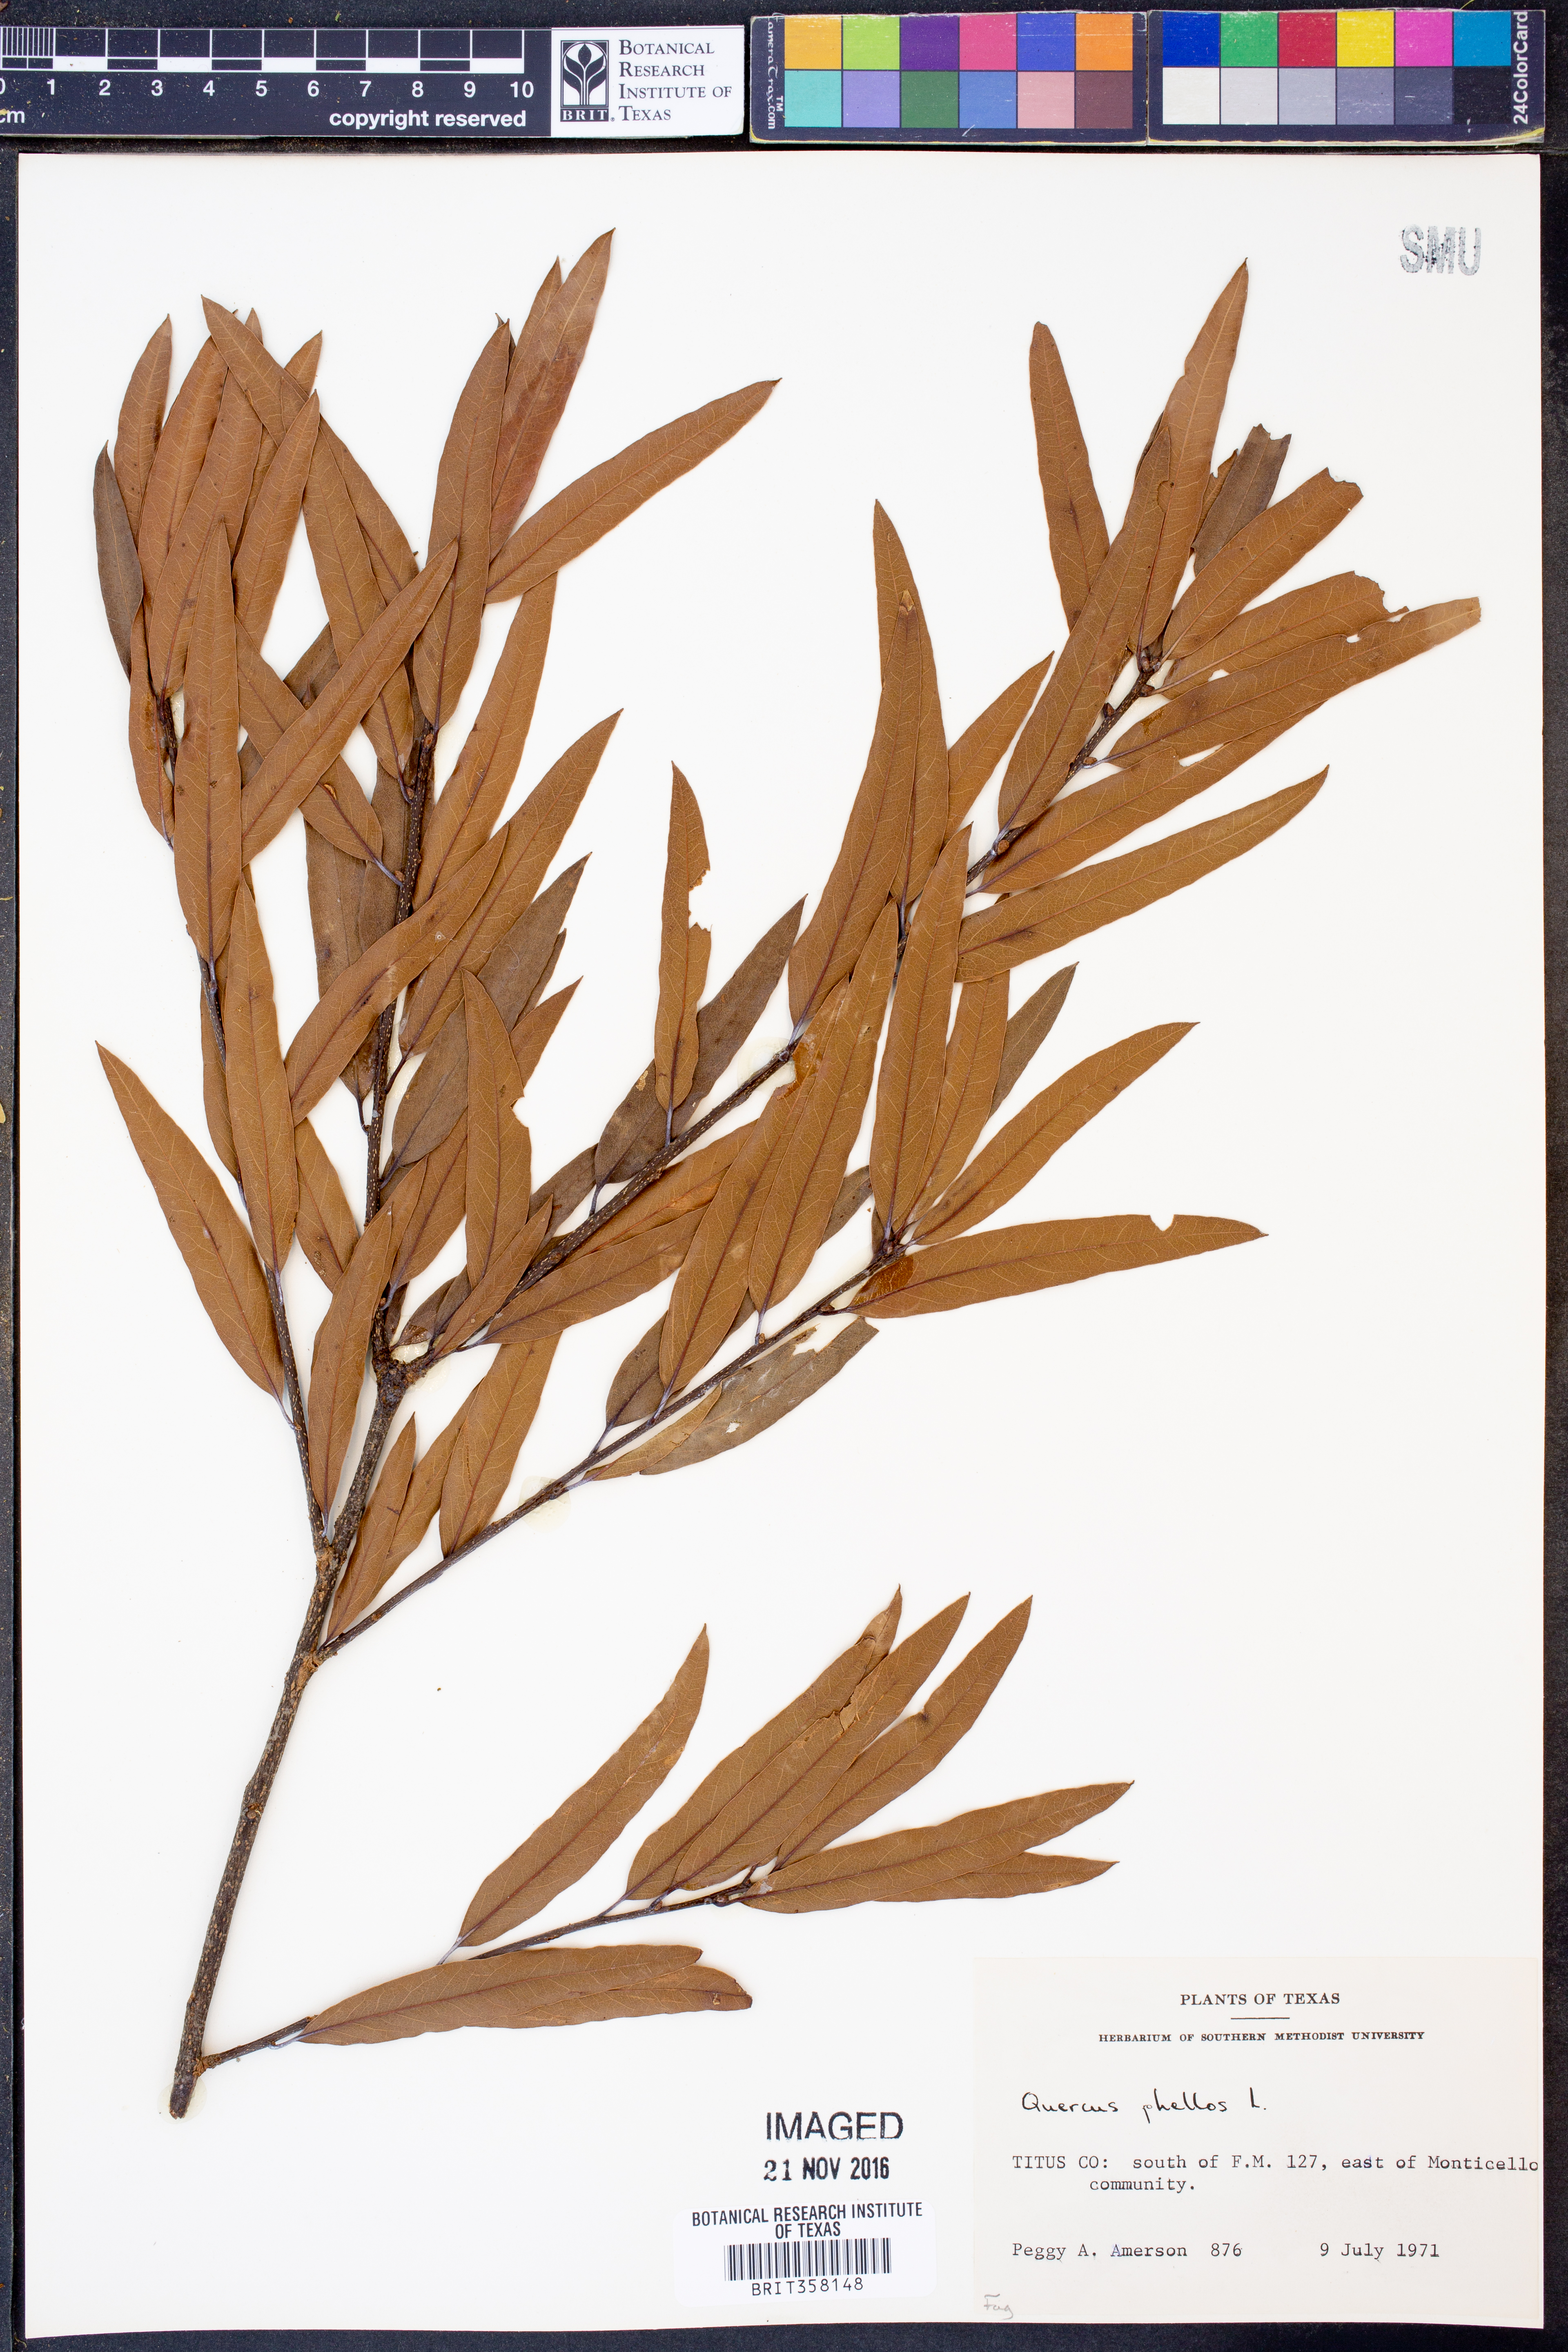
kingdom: Plantae
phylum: Tracheophyta
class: Magnoliopsida
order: Fagales
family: Fagaceae
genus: Quercus
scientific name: Quercus phellos
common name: Willow oak
